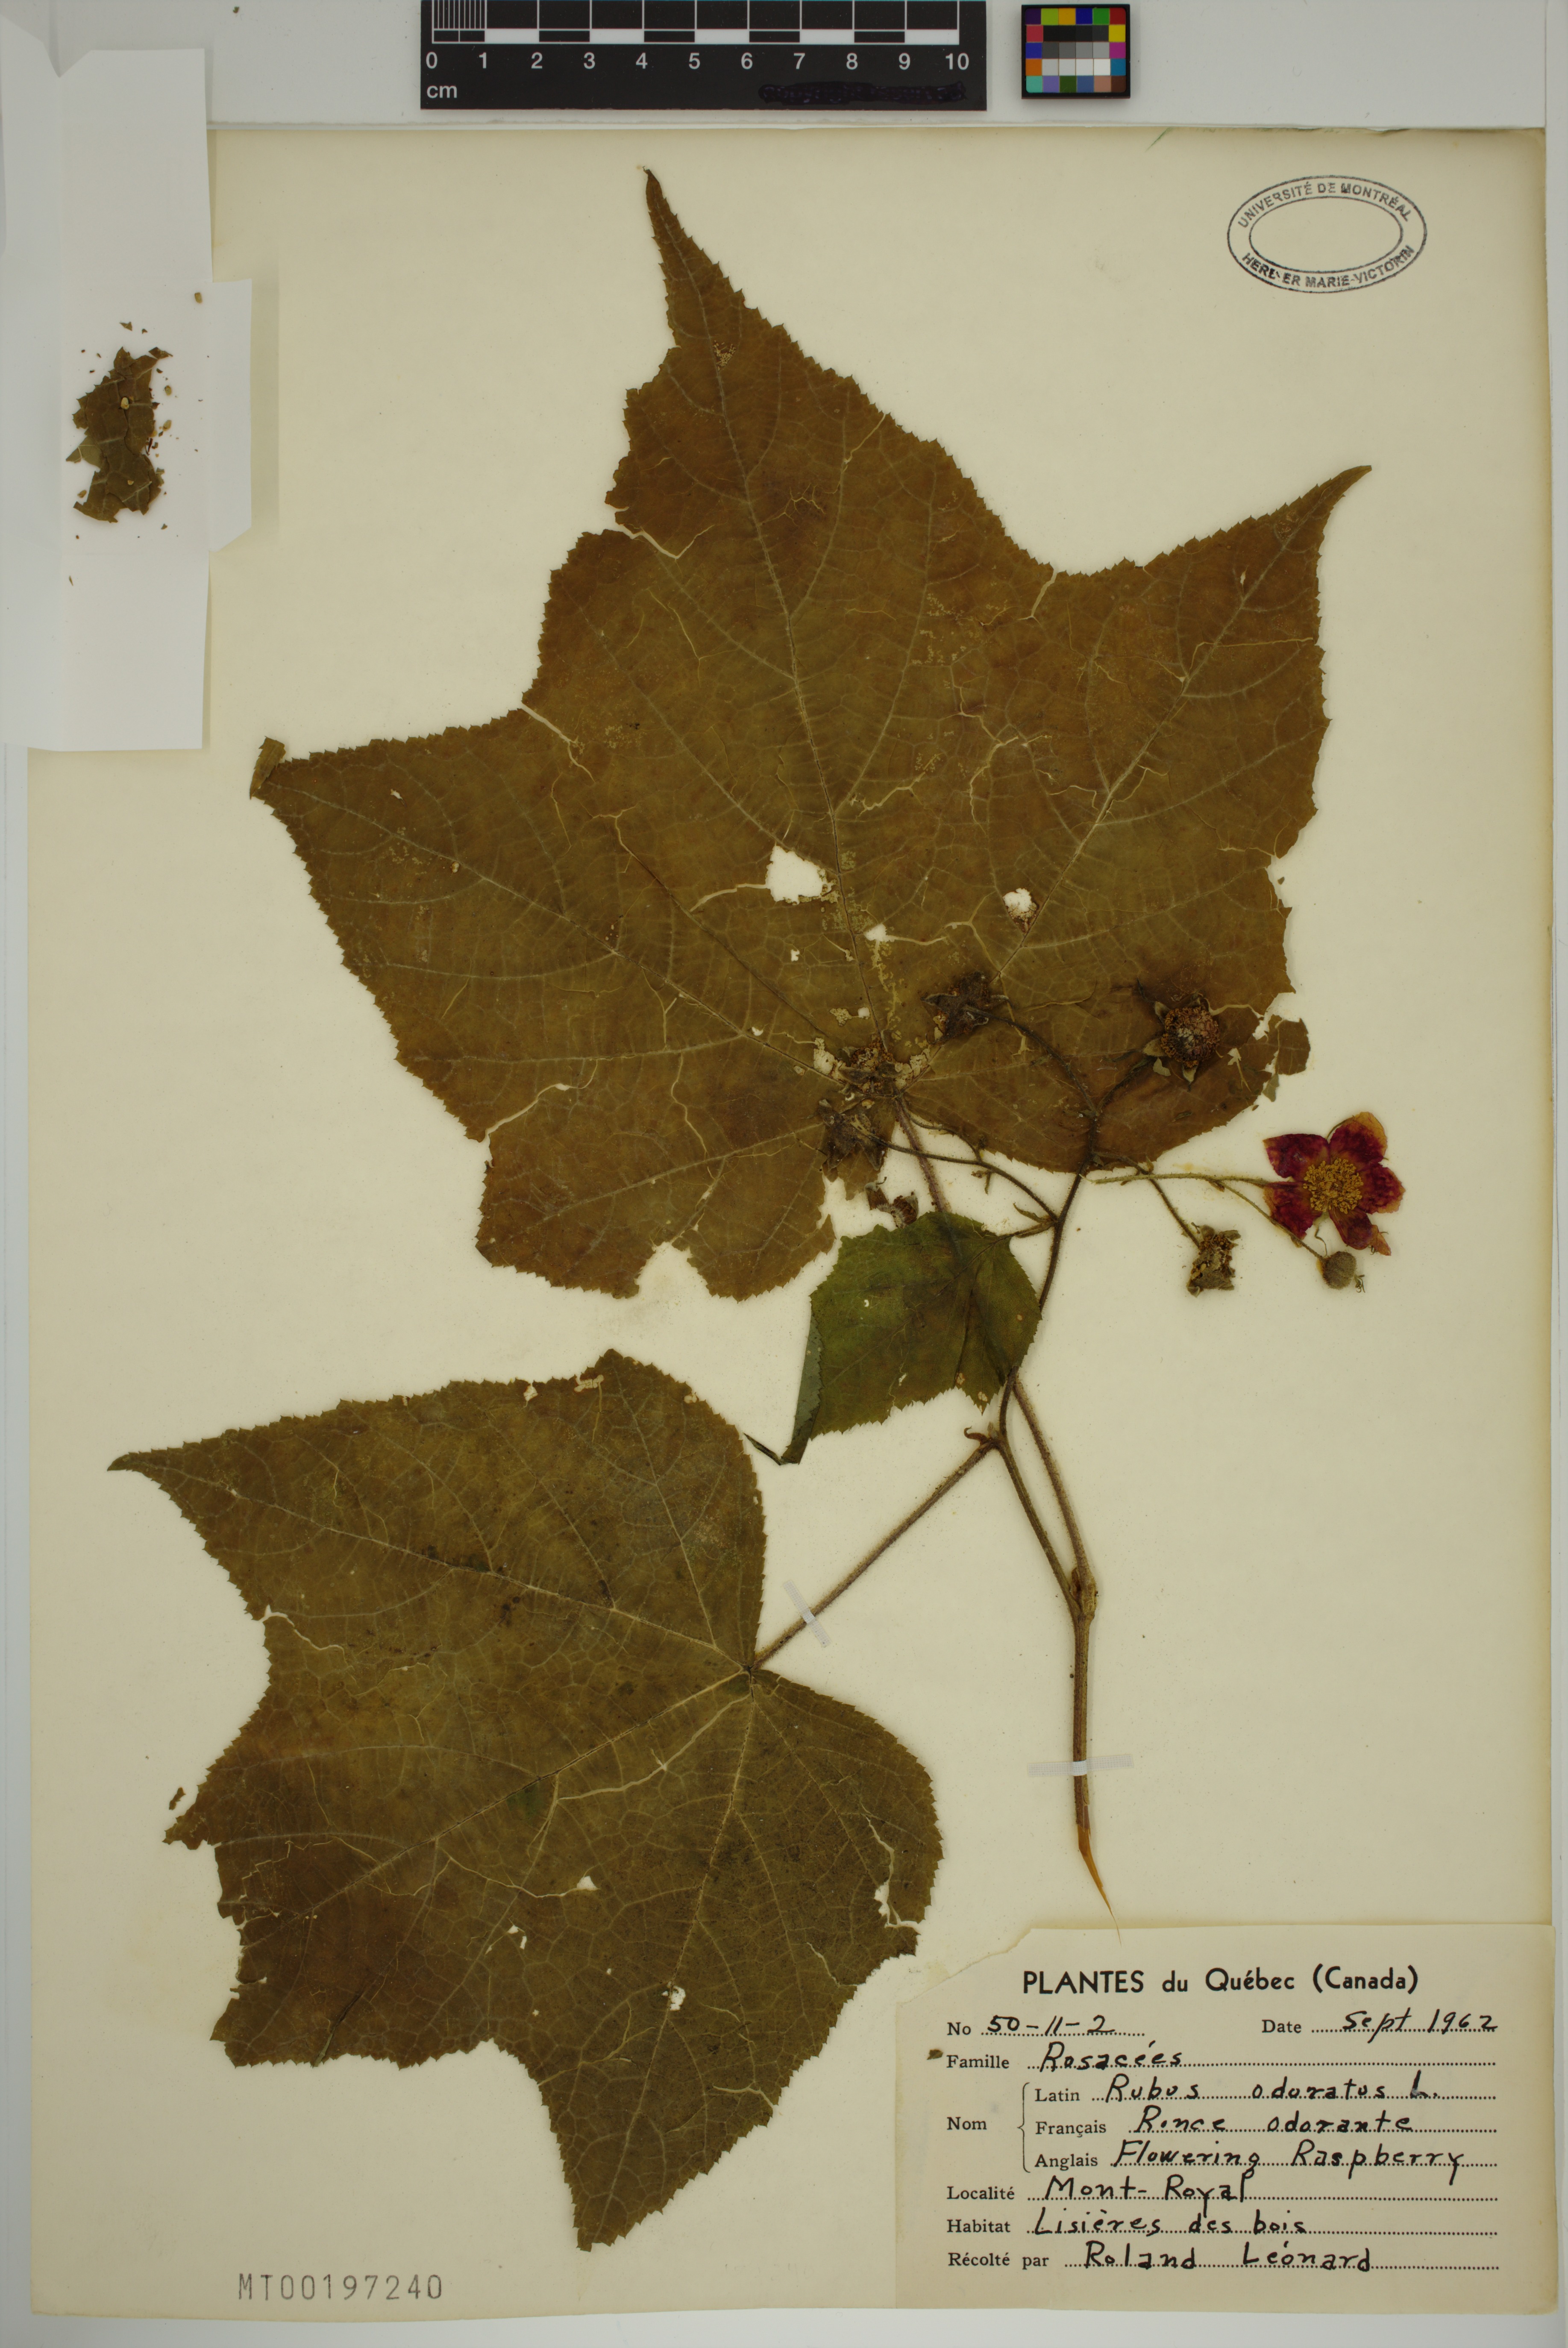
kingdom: Plantae
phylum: Tracheophyta
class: Magnoliopsida
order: Rosales
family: Rosaceae
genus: Rubus
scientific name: Rubus odoratus
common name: Purple-flowered raspberry
